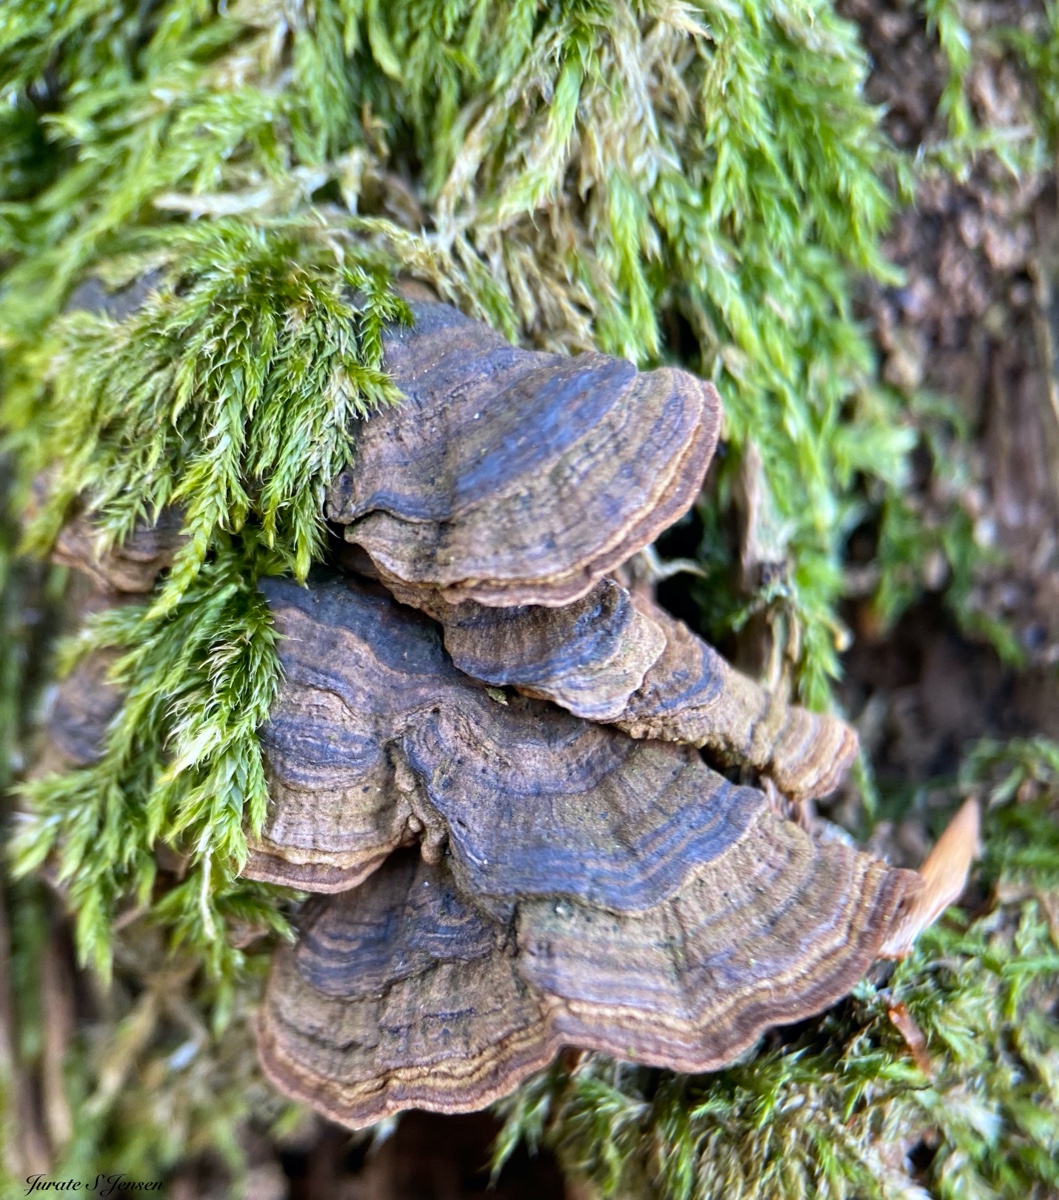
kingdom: Fungi
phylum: Basidiomycota
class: Agaricomycetes
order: Hymenochaetales
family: Hymenochaetaceae
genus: Hymenochaete
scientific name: Hymenochaete rubiginosa
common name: stiv ruslædersvamp
